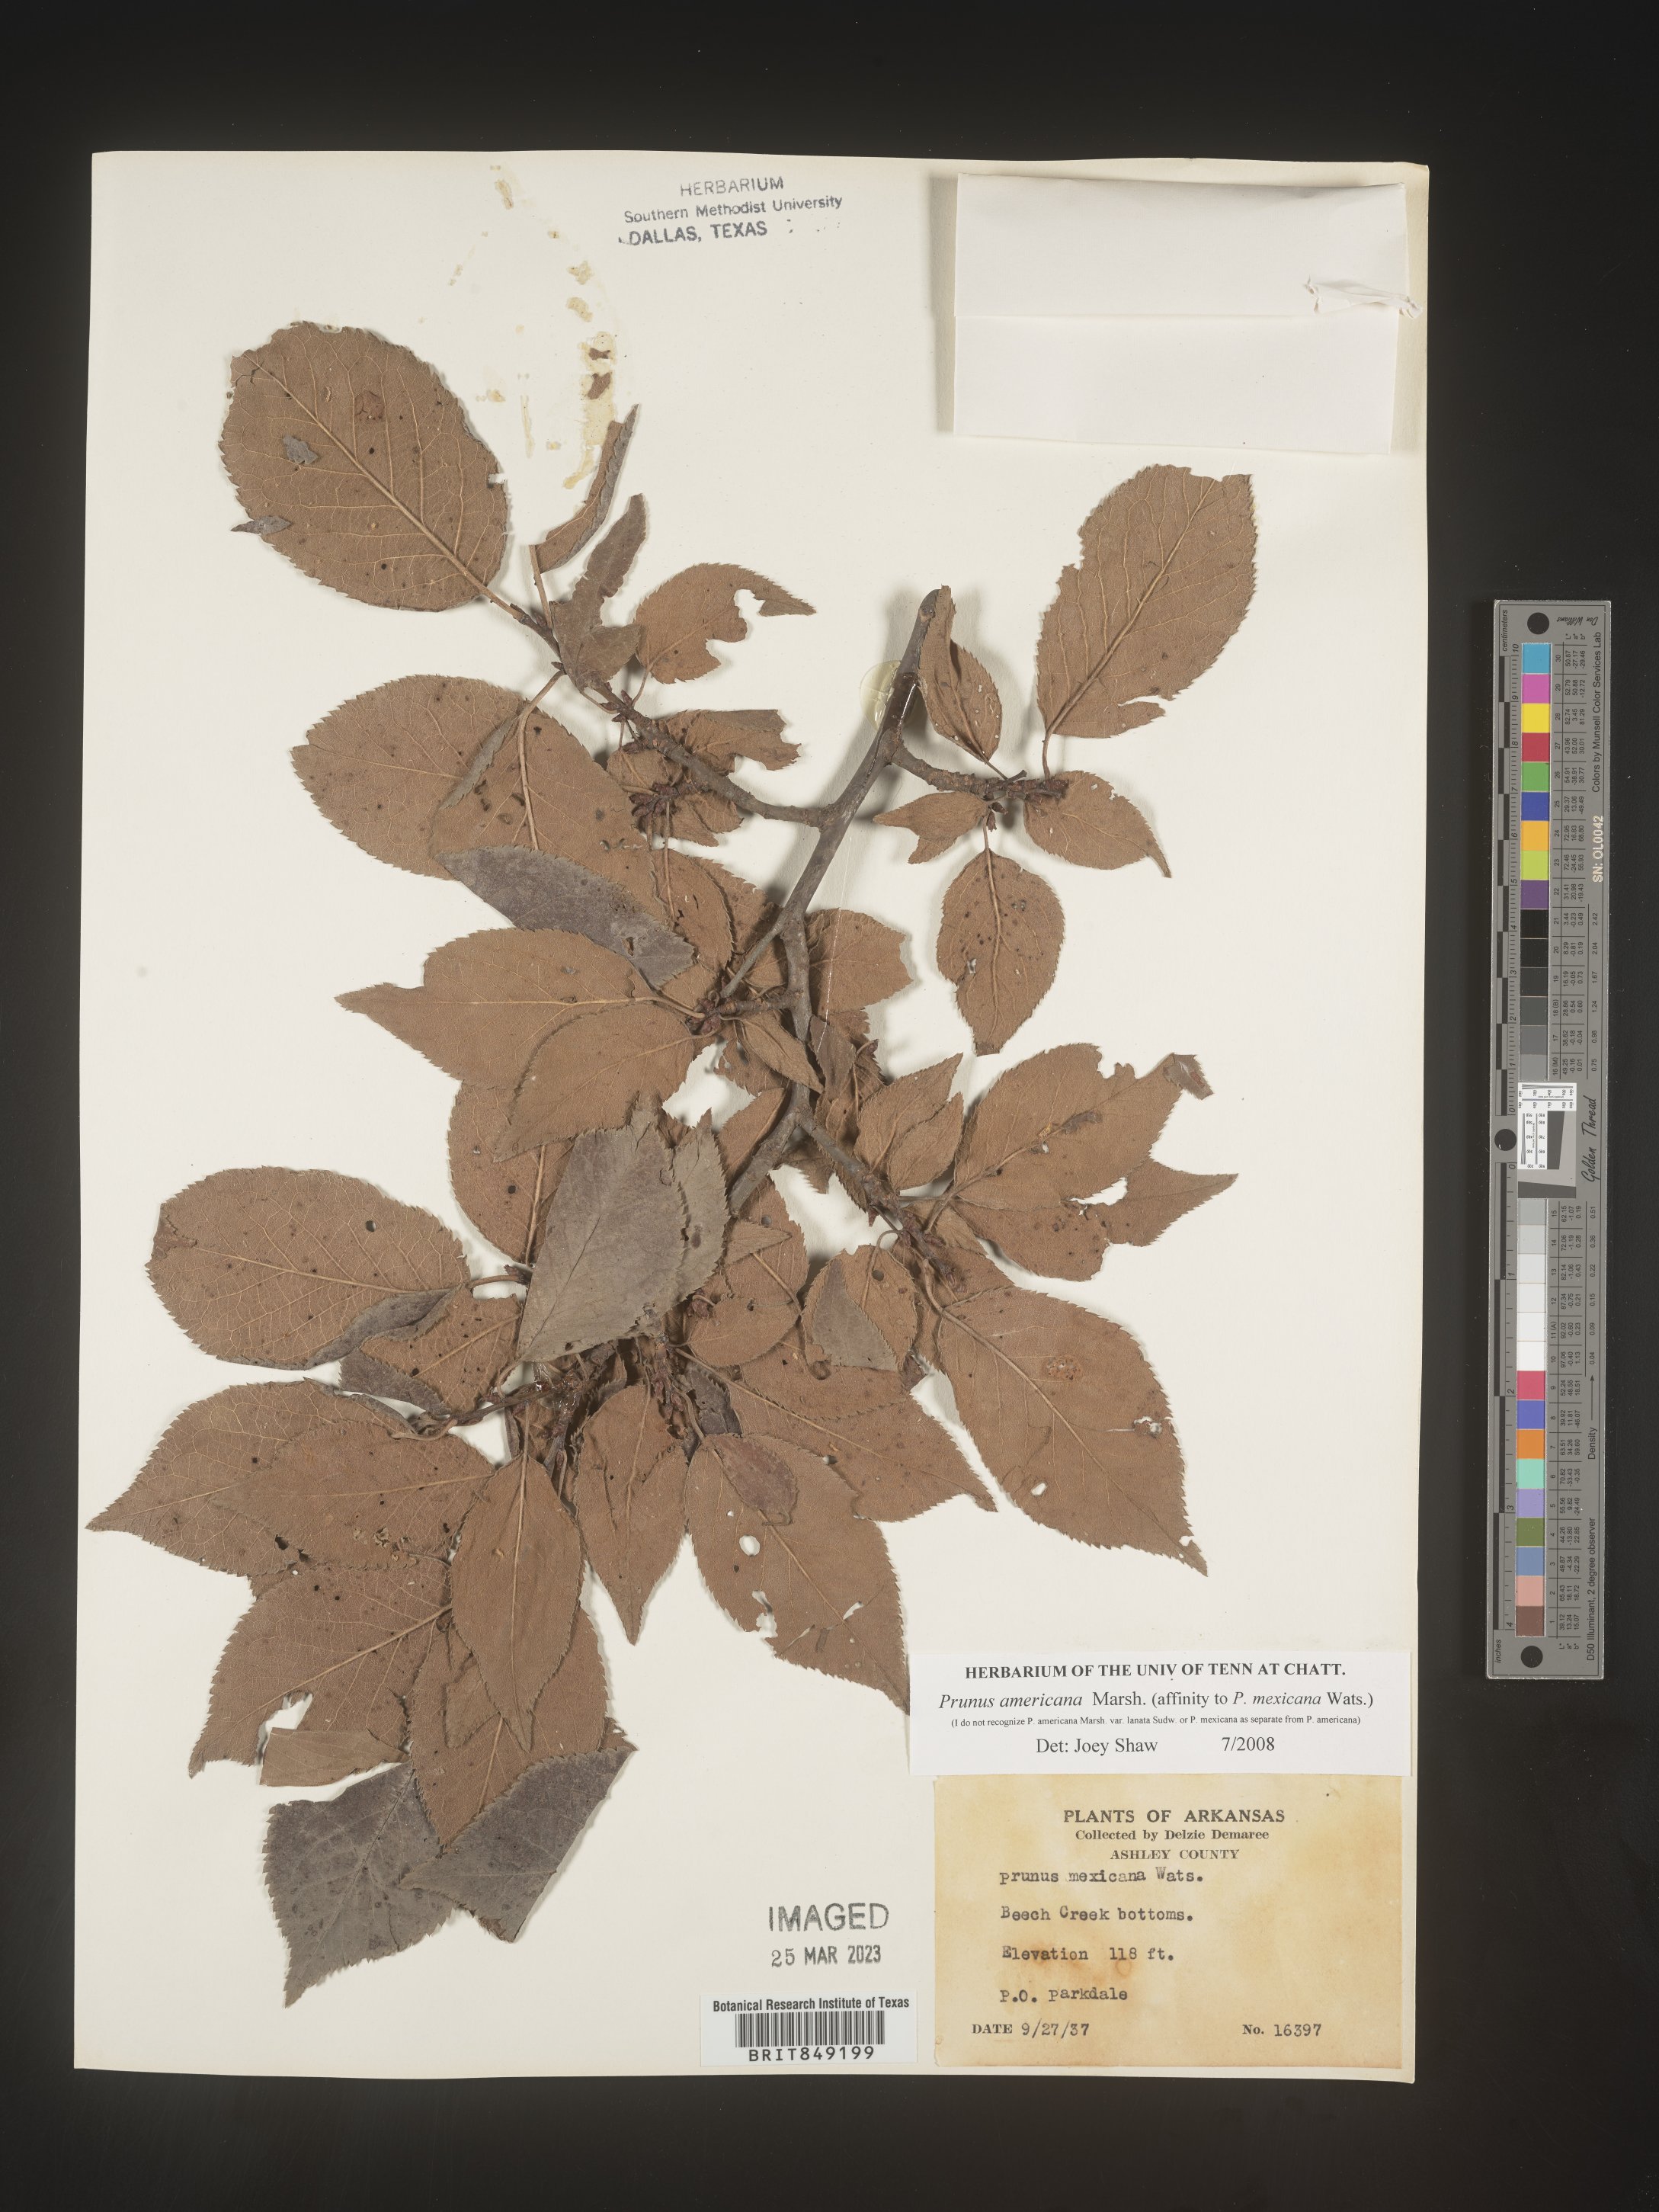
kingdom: Plantae
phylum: Tracheophyta
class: Magnoliopsida
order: Rosales
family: Rosaceae
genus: Prunus
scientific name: Prunus americana
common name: American plum
